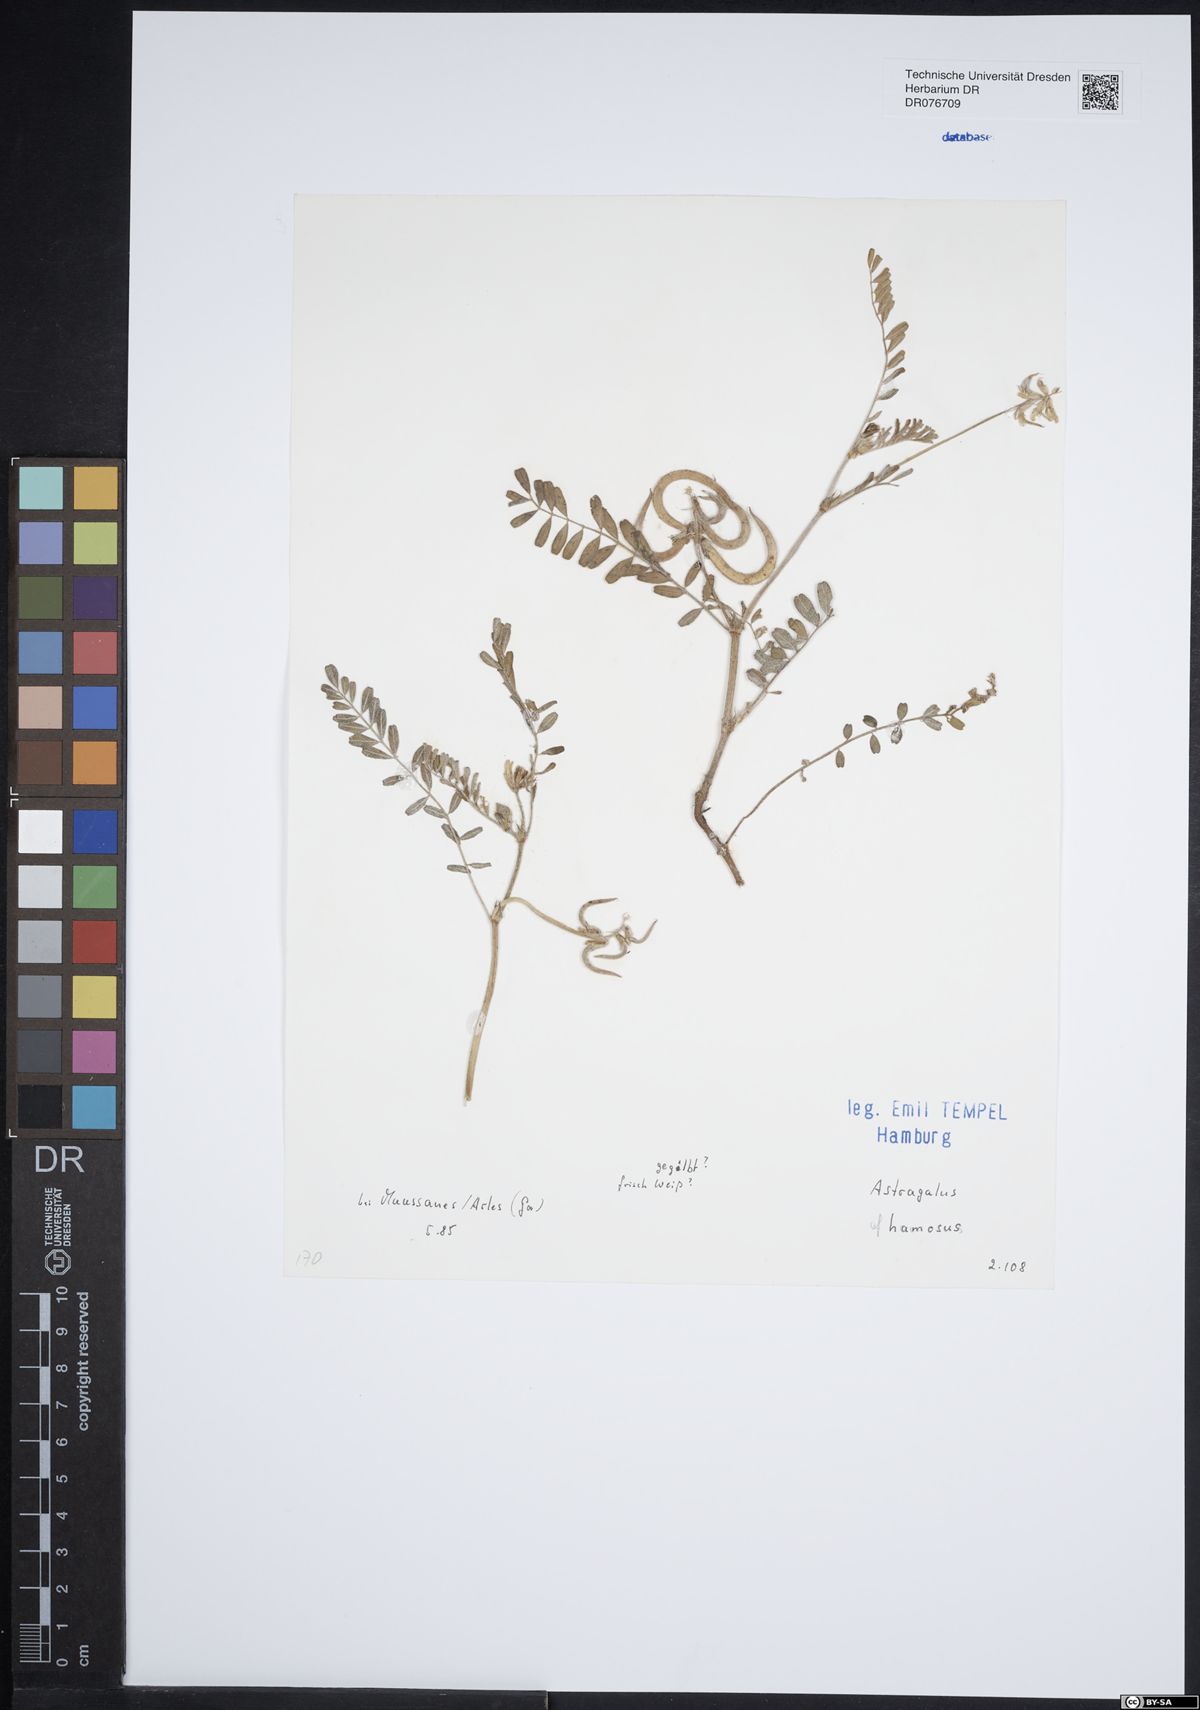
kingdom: Plantae
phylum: Tracheophyta
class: Magnoliopsida
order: Fabales
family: Fabaceae
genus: Astragalus
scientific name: Astragalus hamosus
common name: European milkvetch
